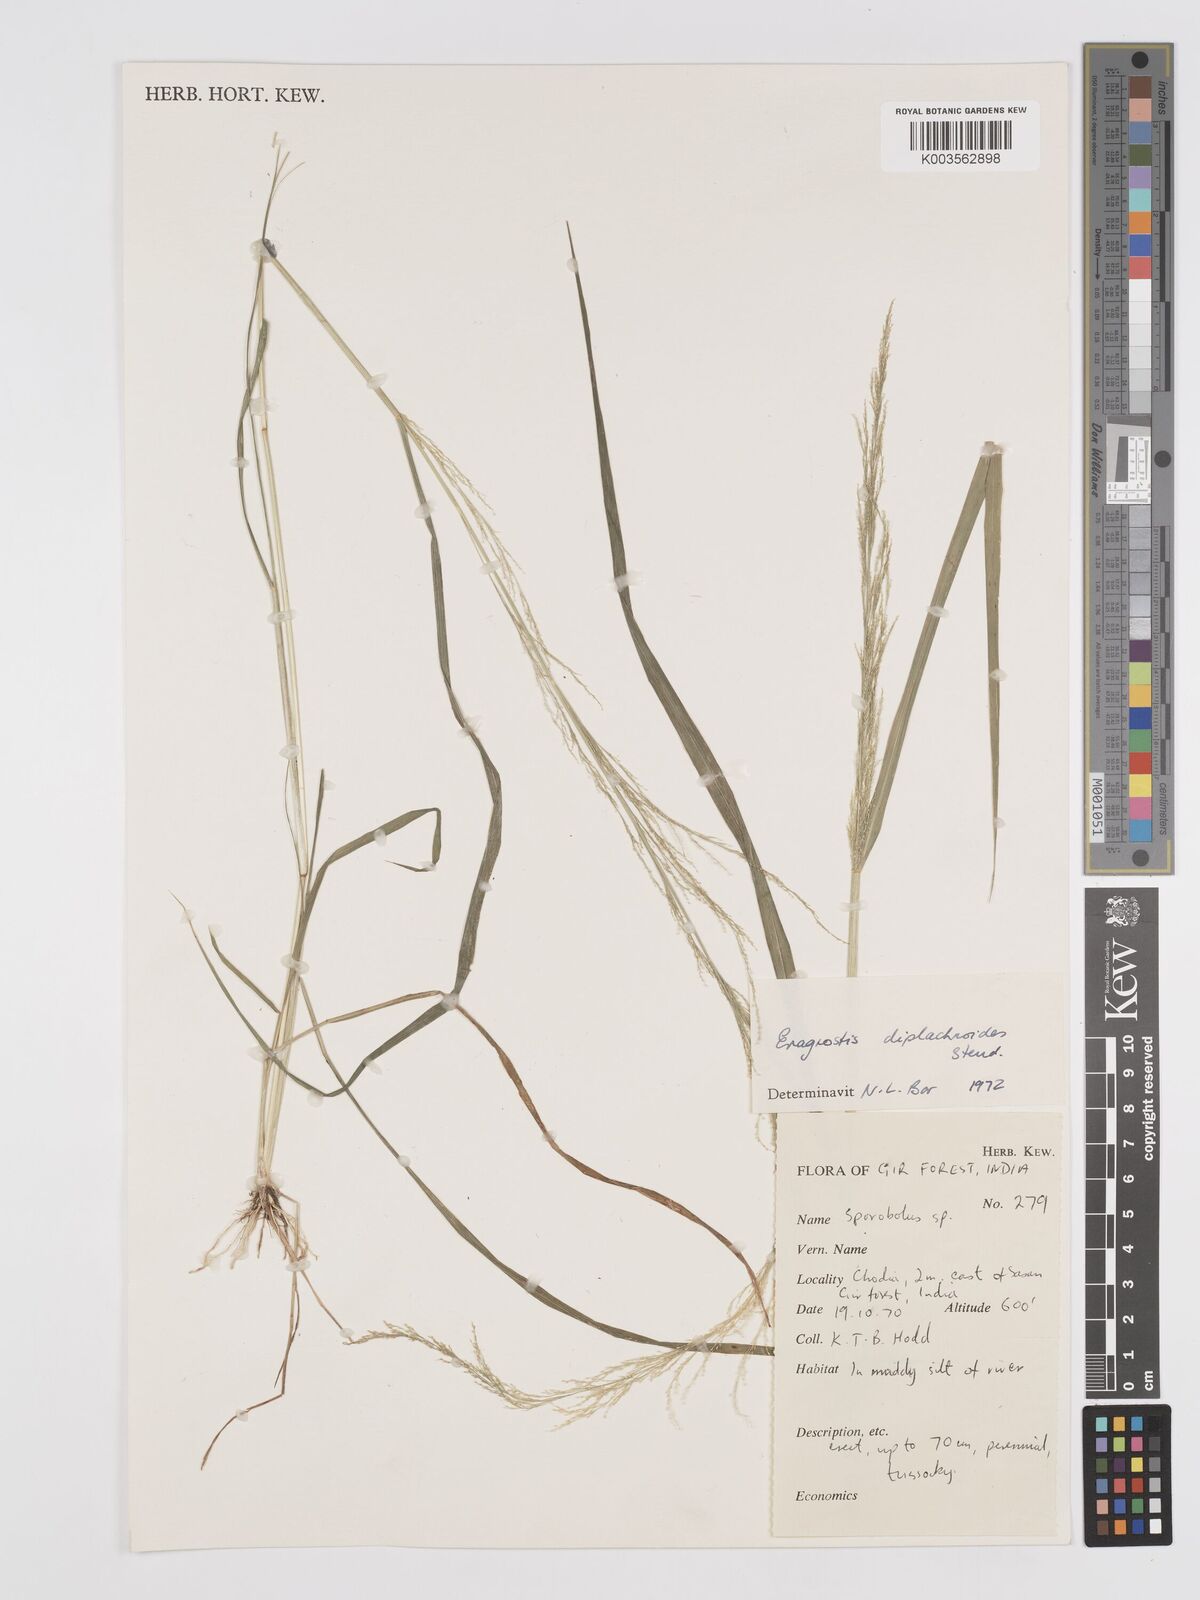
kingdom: Plantae
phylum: Tracheophyta
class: Liliopsida
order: Poales
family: Poaceae
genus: Eragrostis
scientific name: Eragrostis japonica
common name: Pond lovegrass
